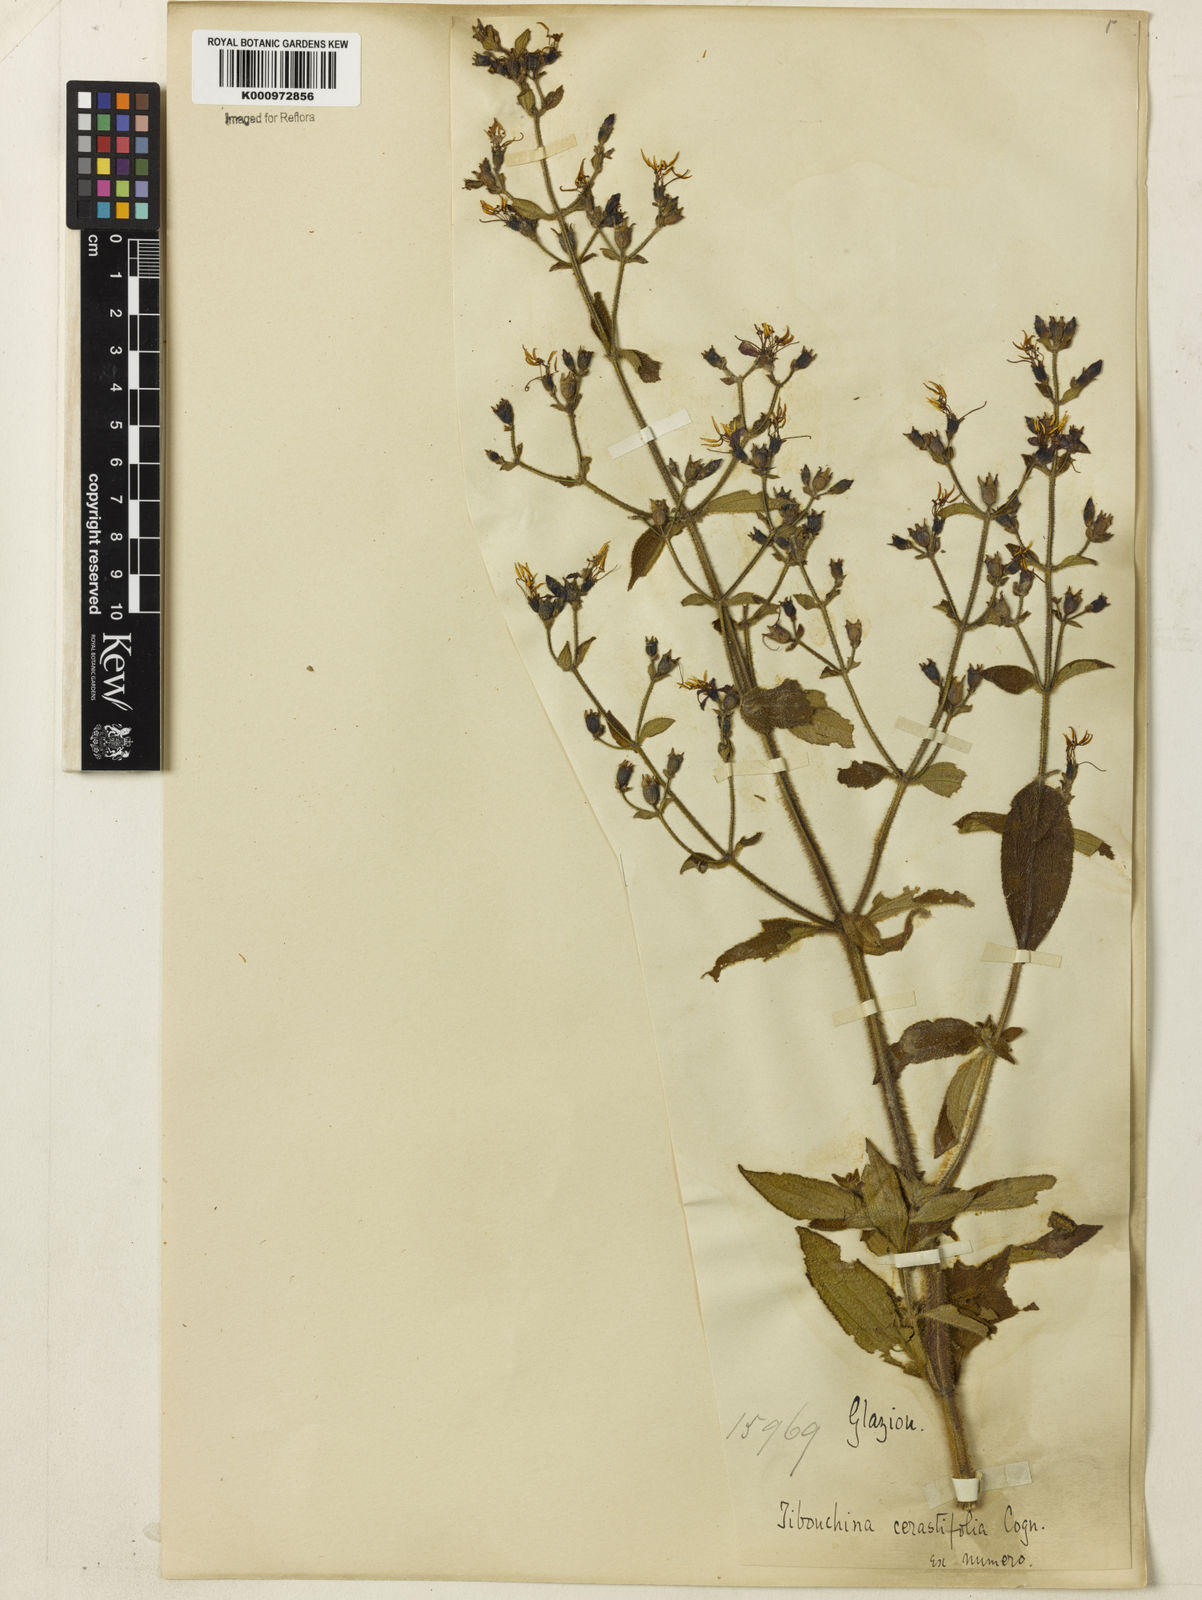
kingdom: Plantae
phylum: Tracheophyta
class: Magnoliopsida
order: Myrtales
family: Melastomataceae
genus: Chaetogastra
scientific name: Chaetogastra cerastifolia
